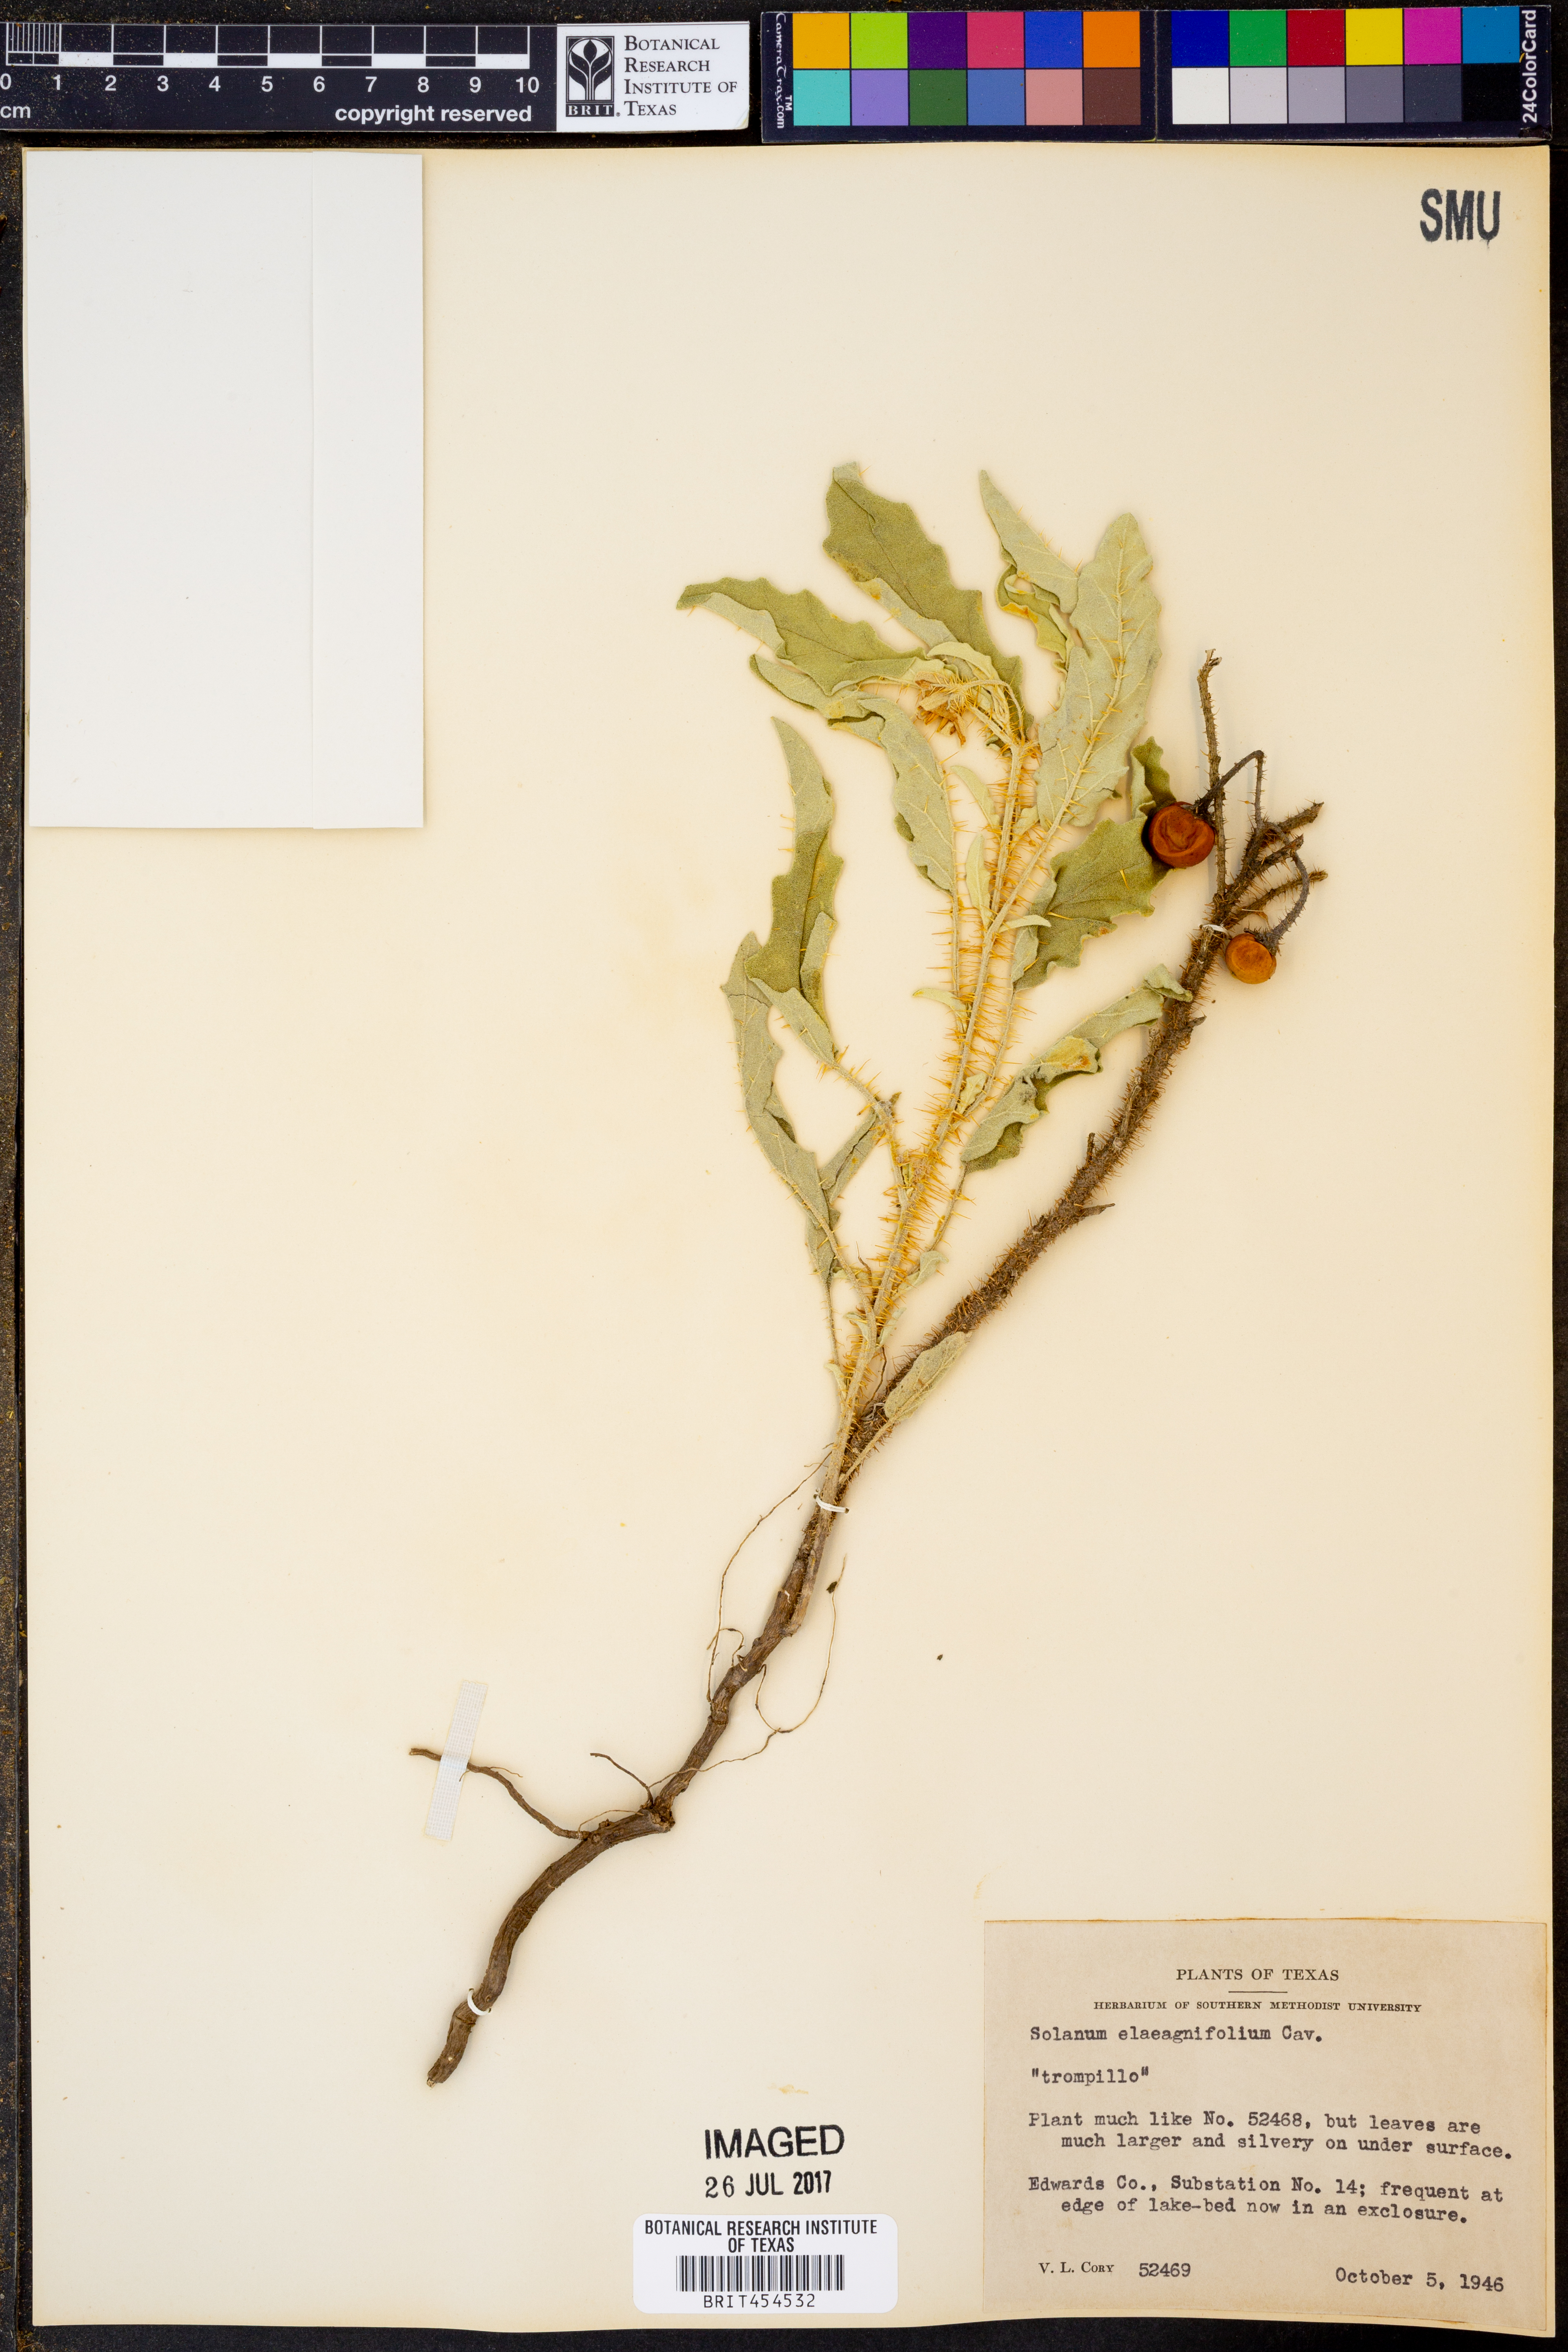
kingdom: Plantae
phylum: Tracheophyta
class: Magnoliopsida
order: Solanales
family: Solanaceae
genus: Solanum
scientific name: Solanum elaeagnifolium
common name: Silverleaf nightshade
